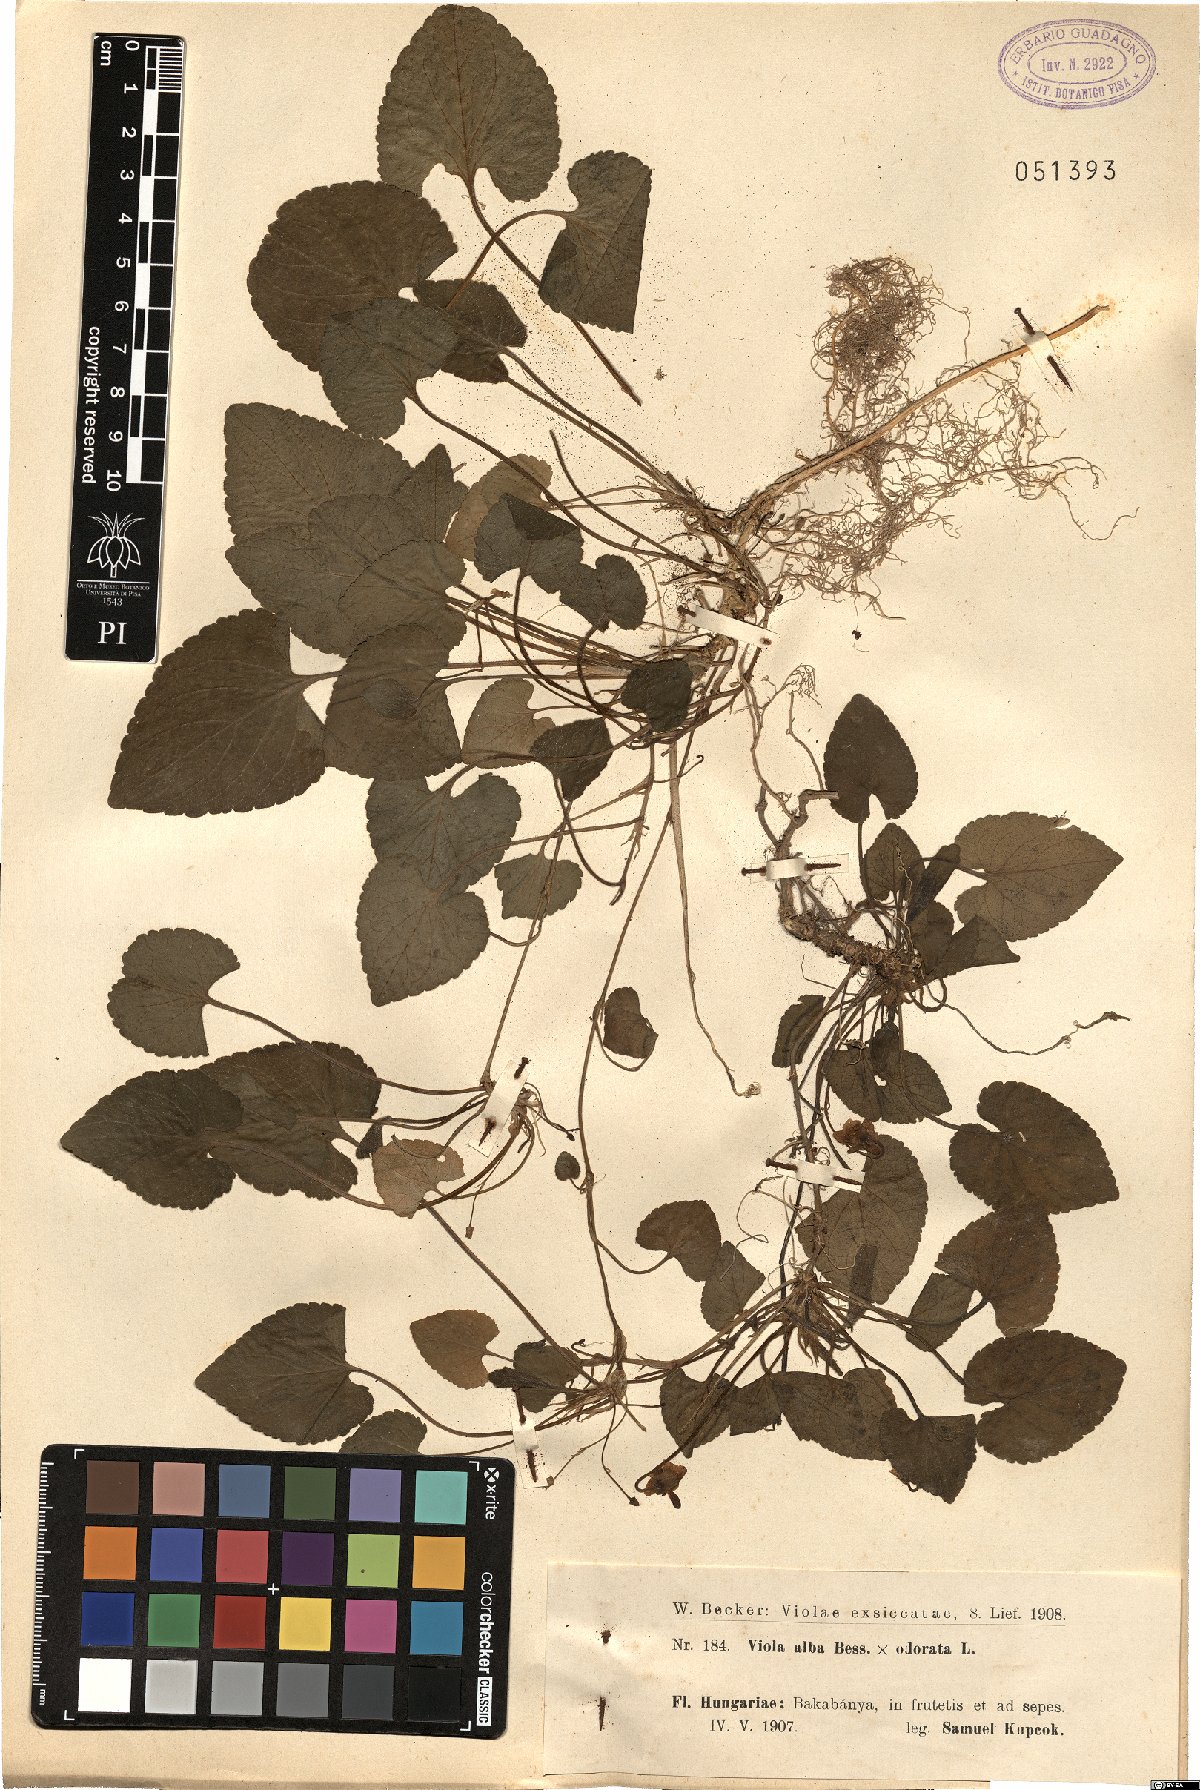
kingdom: Plantae
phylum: Tracheophyta
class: Magnoliopsida
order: Malpighiales
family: Violaceae
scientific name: Violaceae
